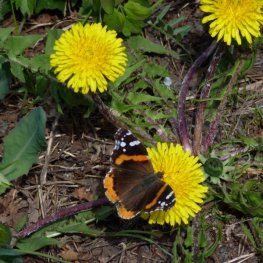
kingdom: Animalia
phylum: Arthropoda
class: Insecta
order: Lepidoptera
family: Nymphalidae
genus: Vanessa
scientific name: Vanessa atalanta
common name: Red Admiral
